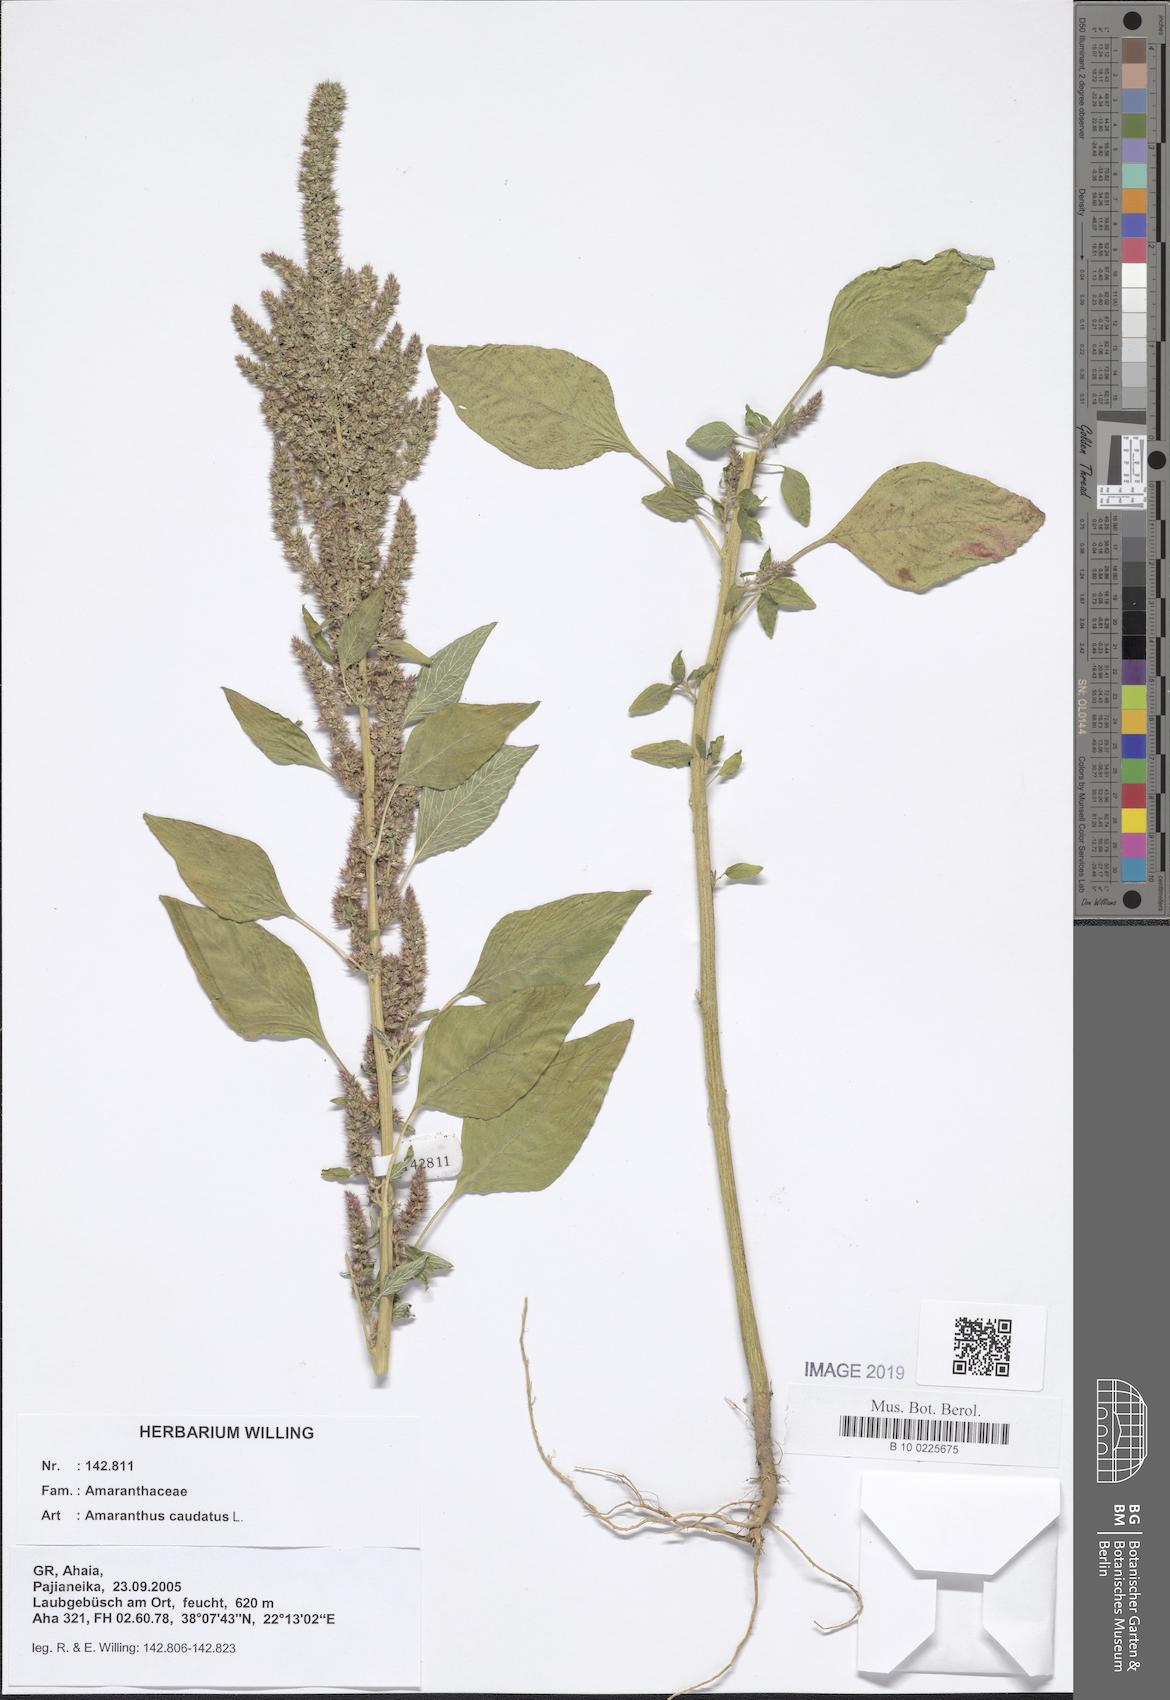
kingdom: Plantae
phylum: Tracheophyta
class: Magnoliopsida
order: Caryophyllales
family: Amaranthaceae
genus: Amaranthus
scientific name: Amaranthus caudatus
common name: Love-lies-bleeding
